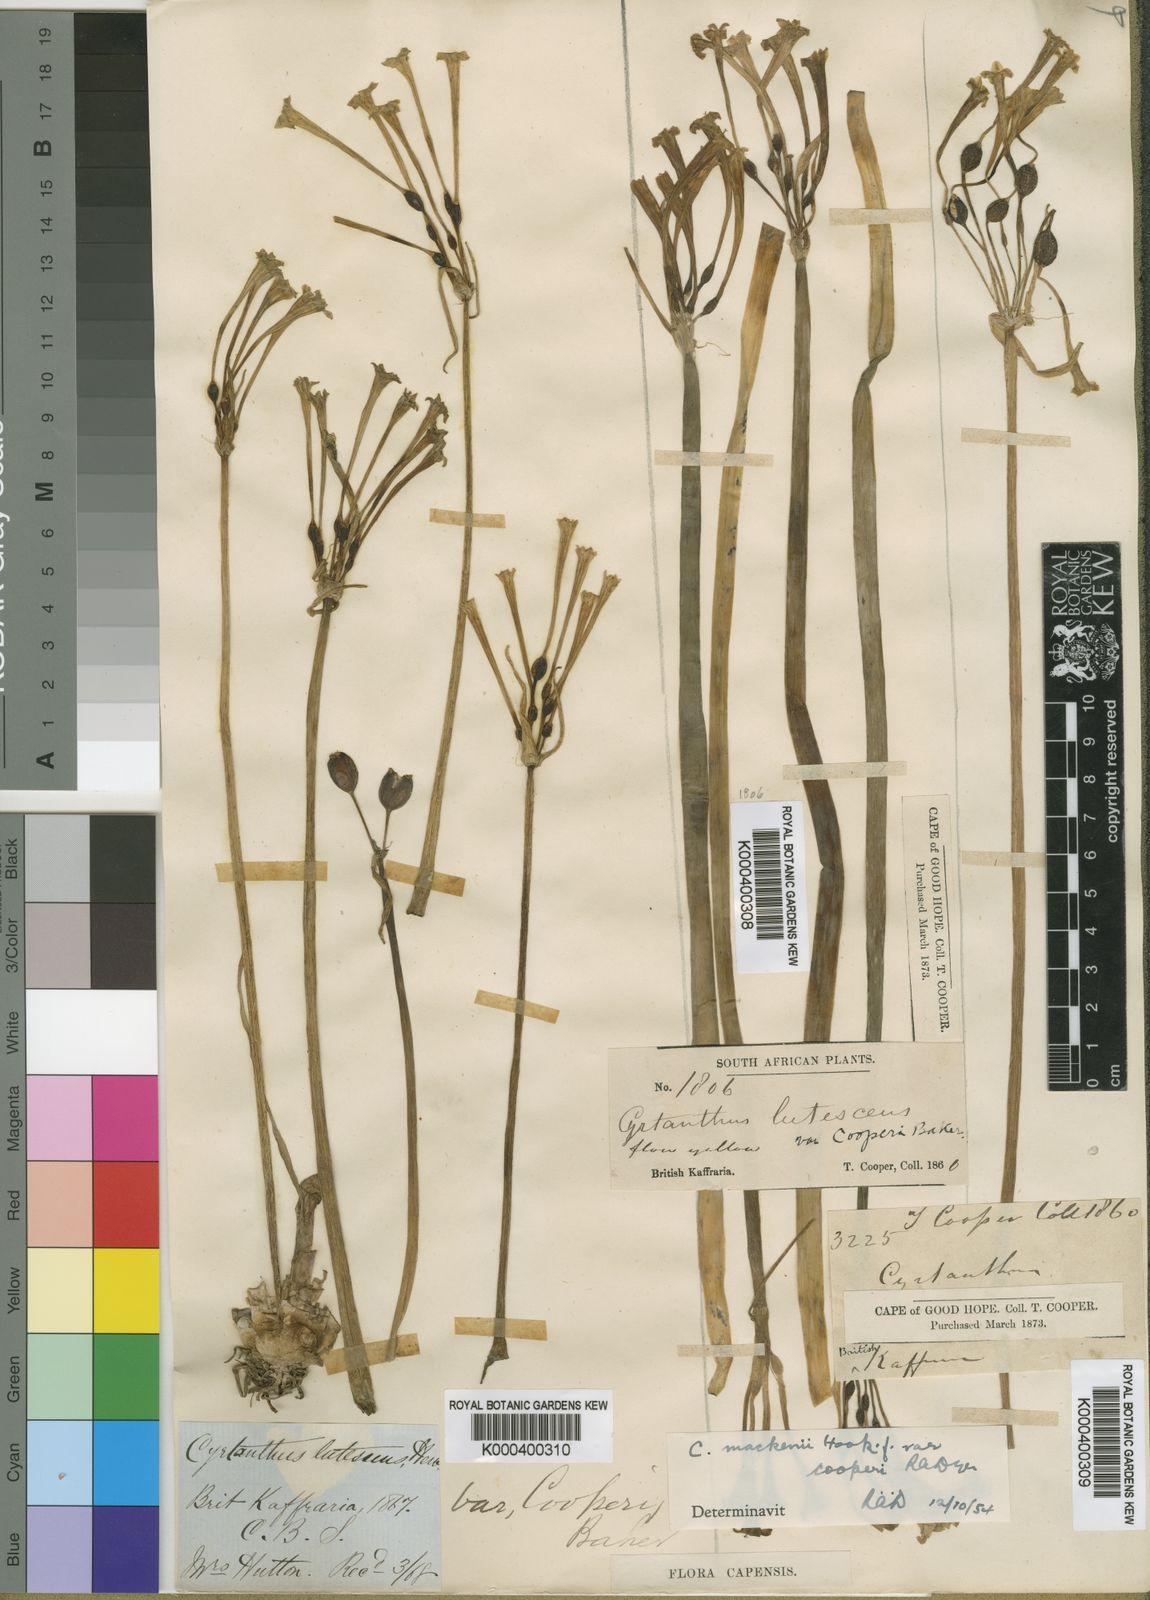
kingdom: Plantae
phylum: Tracheophyta
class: Liliopsida
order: Asparagales
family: Amaryllidaceae
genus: Cyrtanthus
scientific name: Cyrtanthus mackenii
